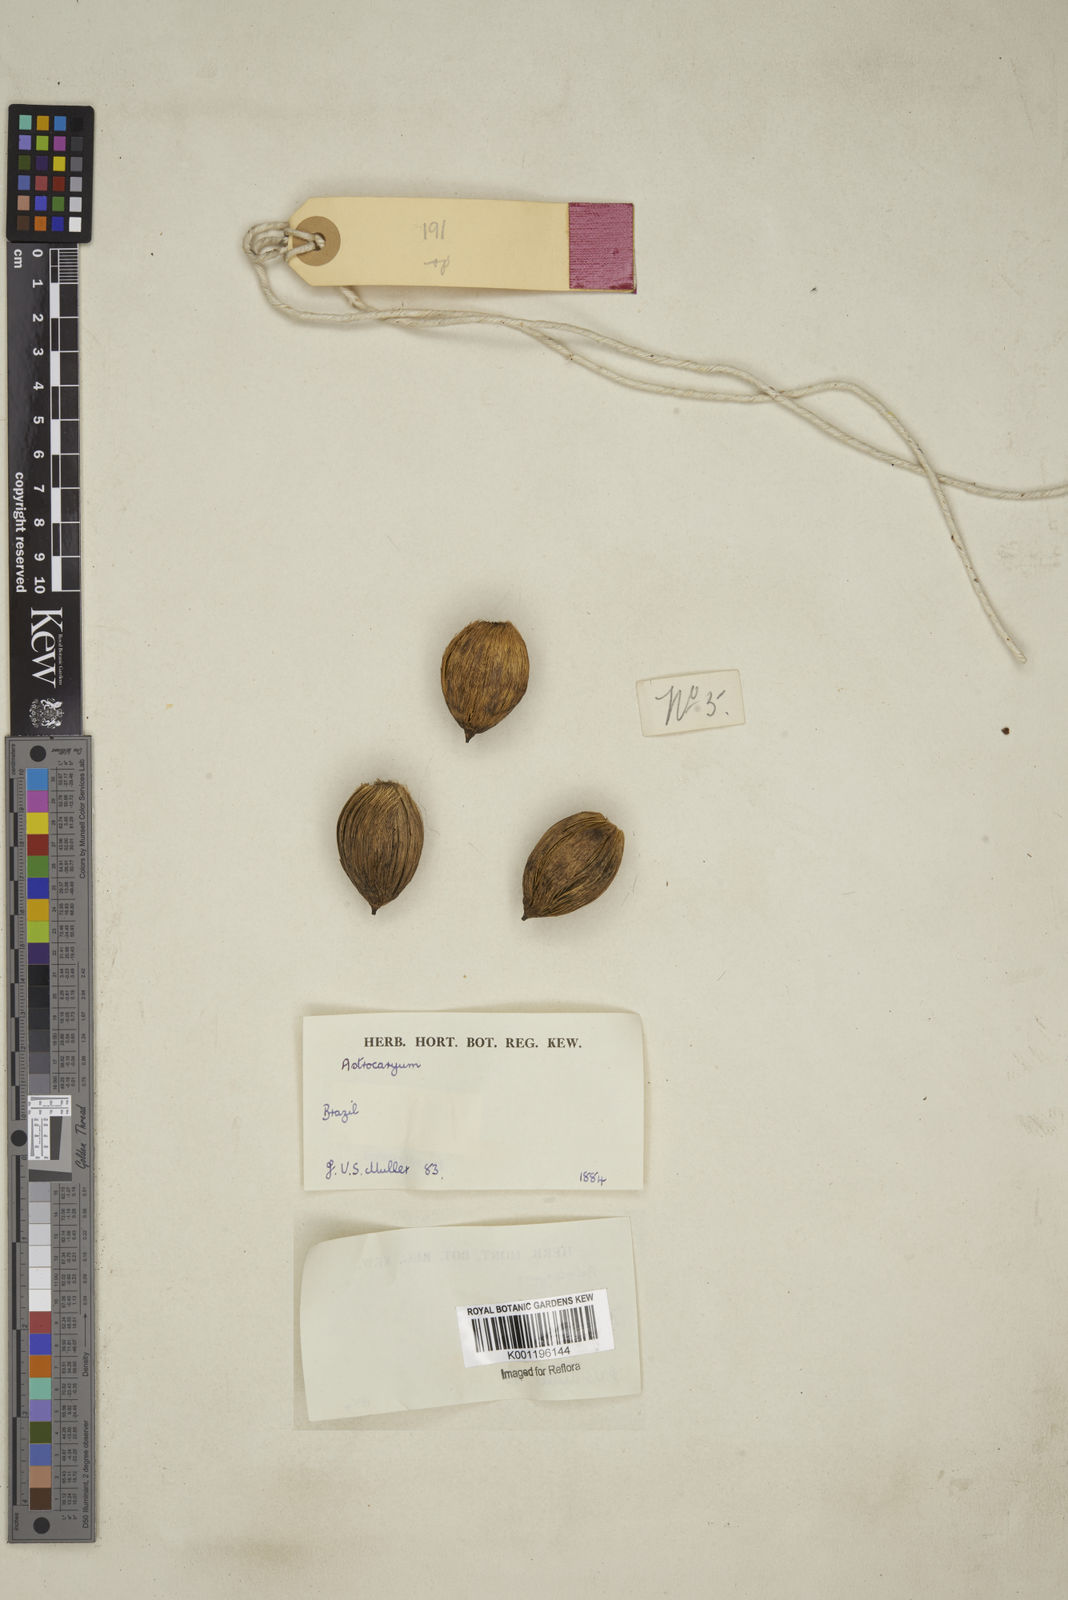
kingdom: Plantae
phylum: Tracheophyta
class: Liliopsida
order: Arecales
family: Arecaceae
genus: Astrocaryum
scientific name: Astrocaryum
